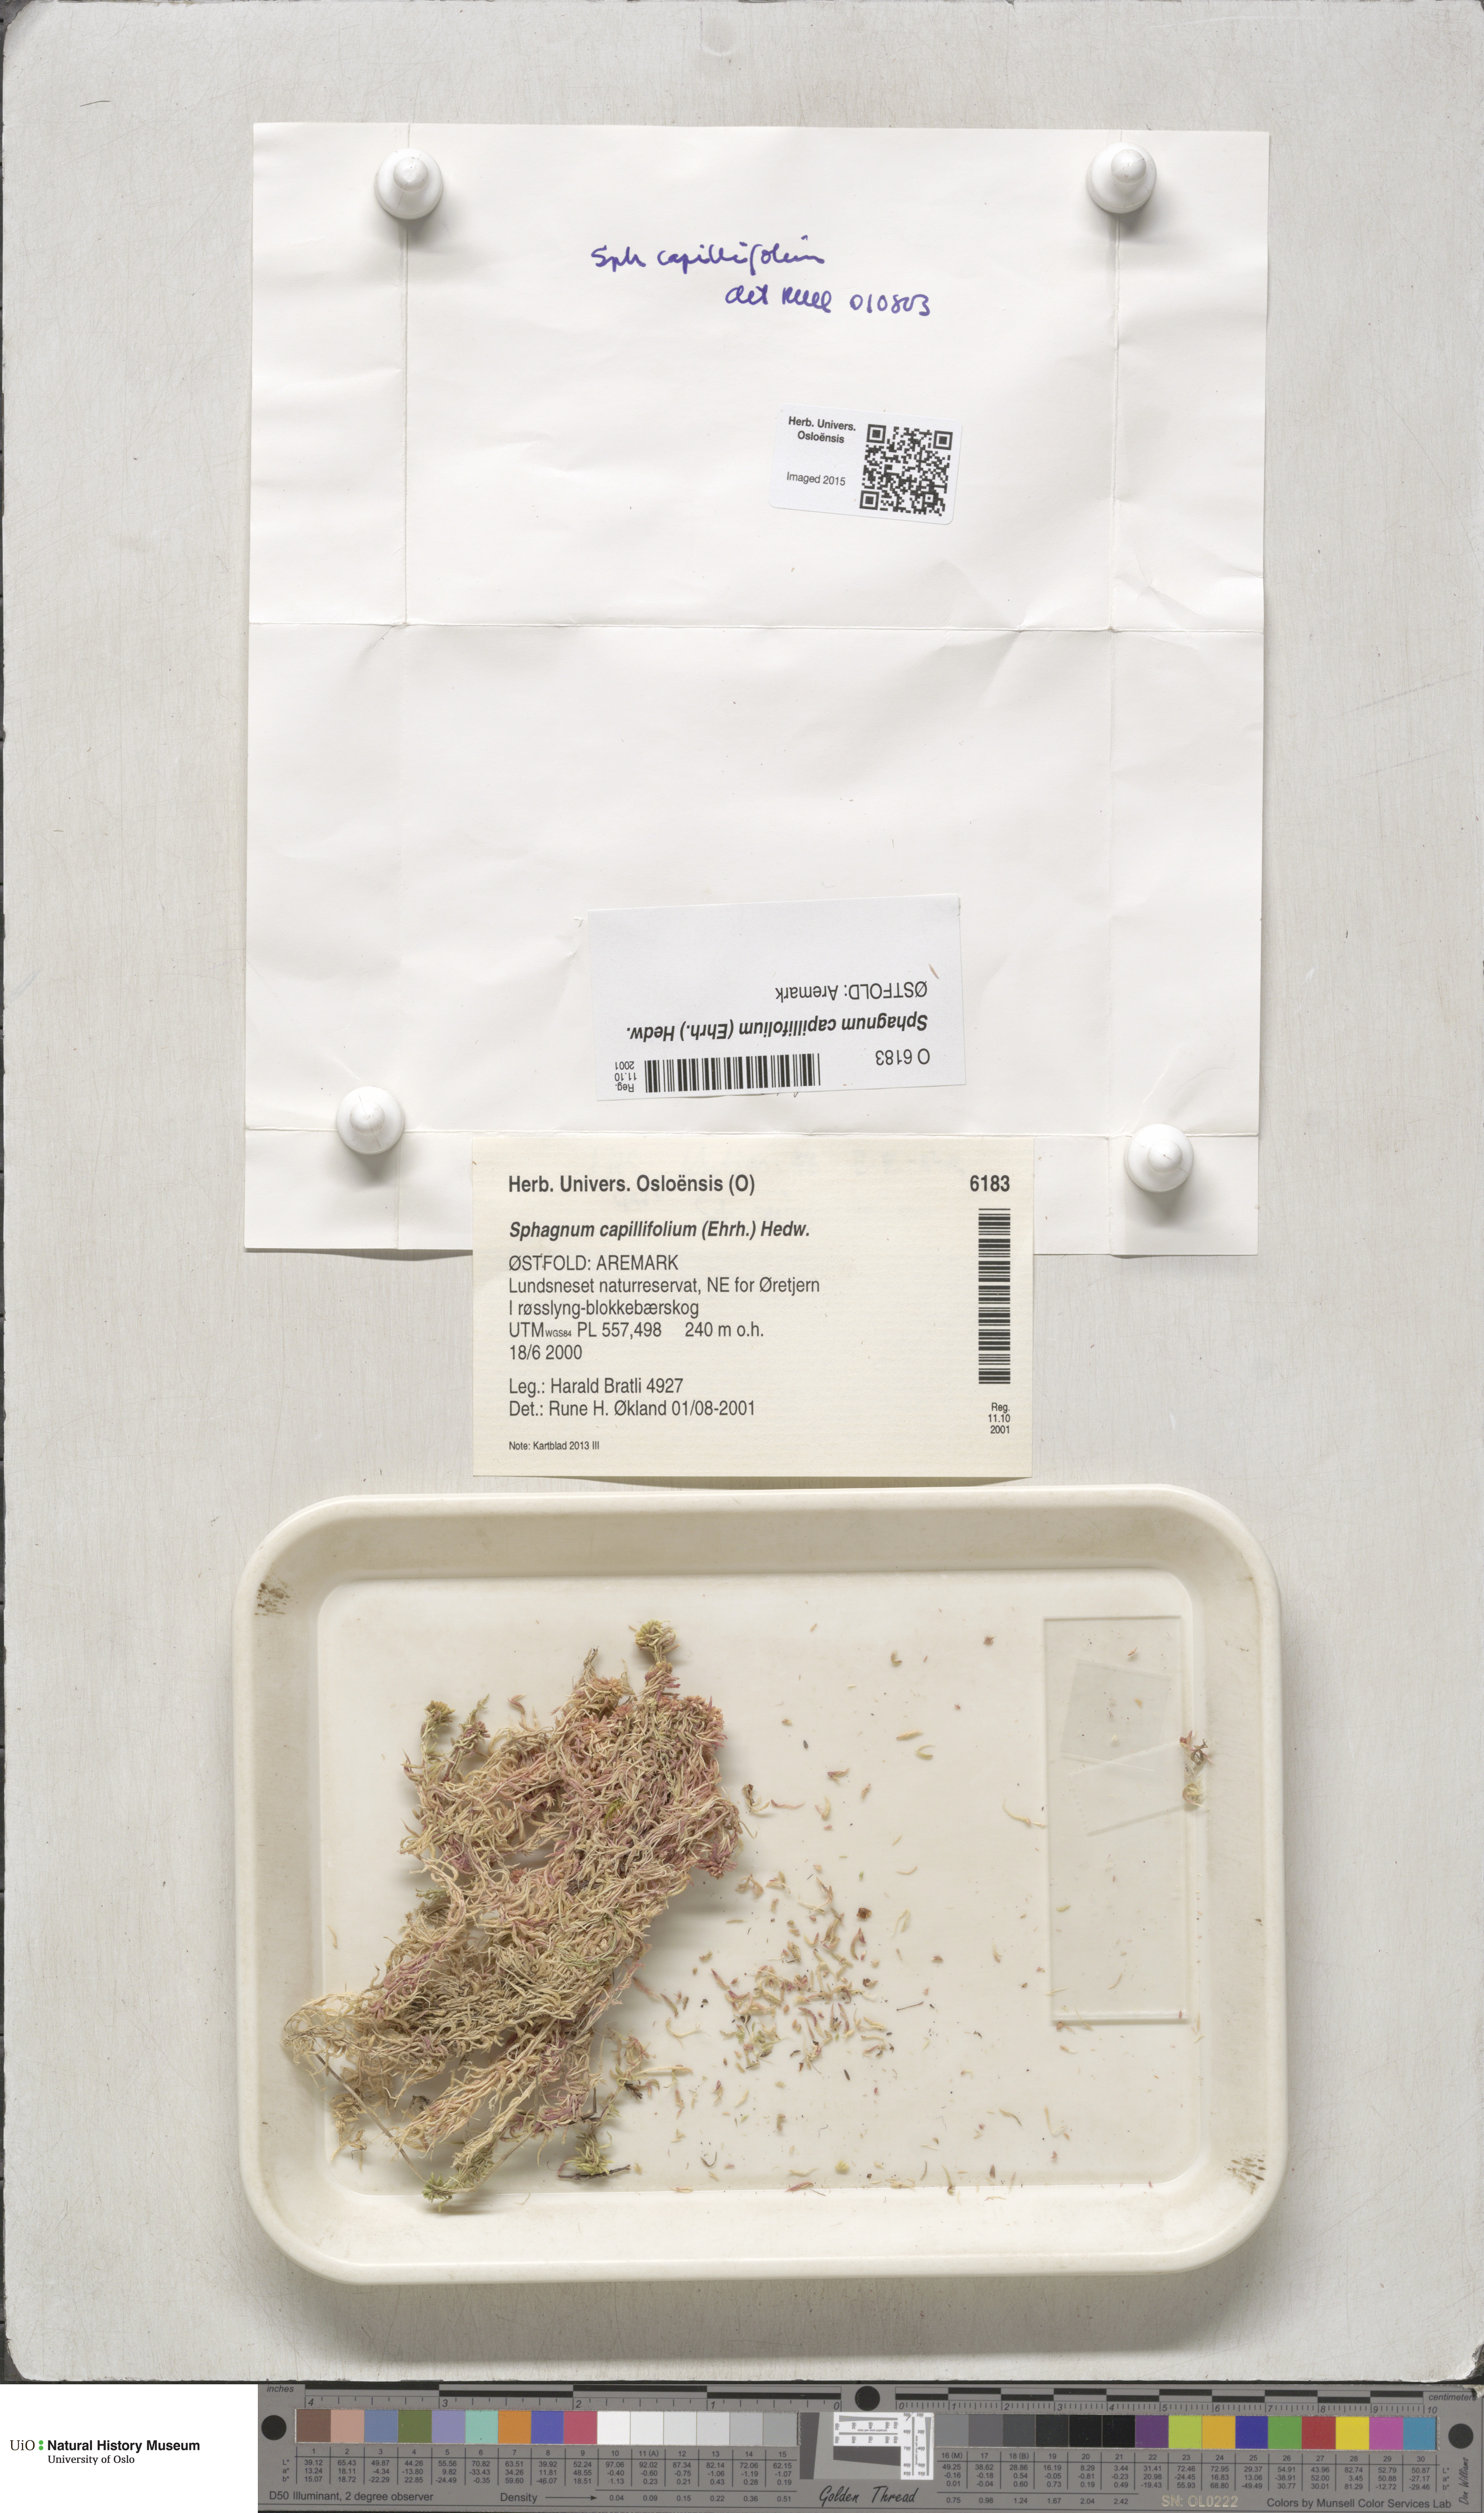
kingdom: Plantae
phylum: Bryophyta
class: Sphagnopsida
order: Sphagnales
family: Sphagnaceae
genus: Sphagnum
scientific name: Sphagnum capillifolium
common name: Small red peat moss
